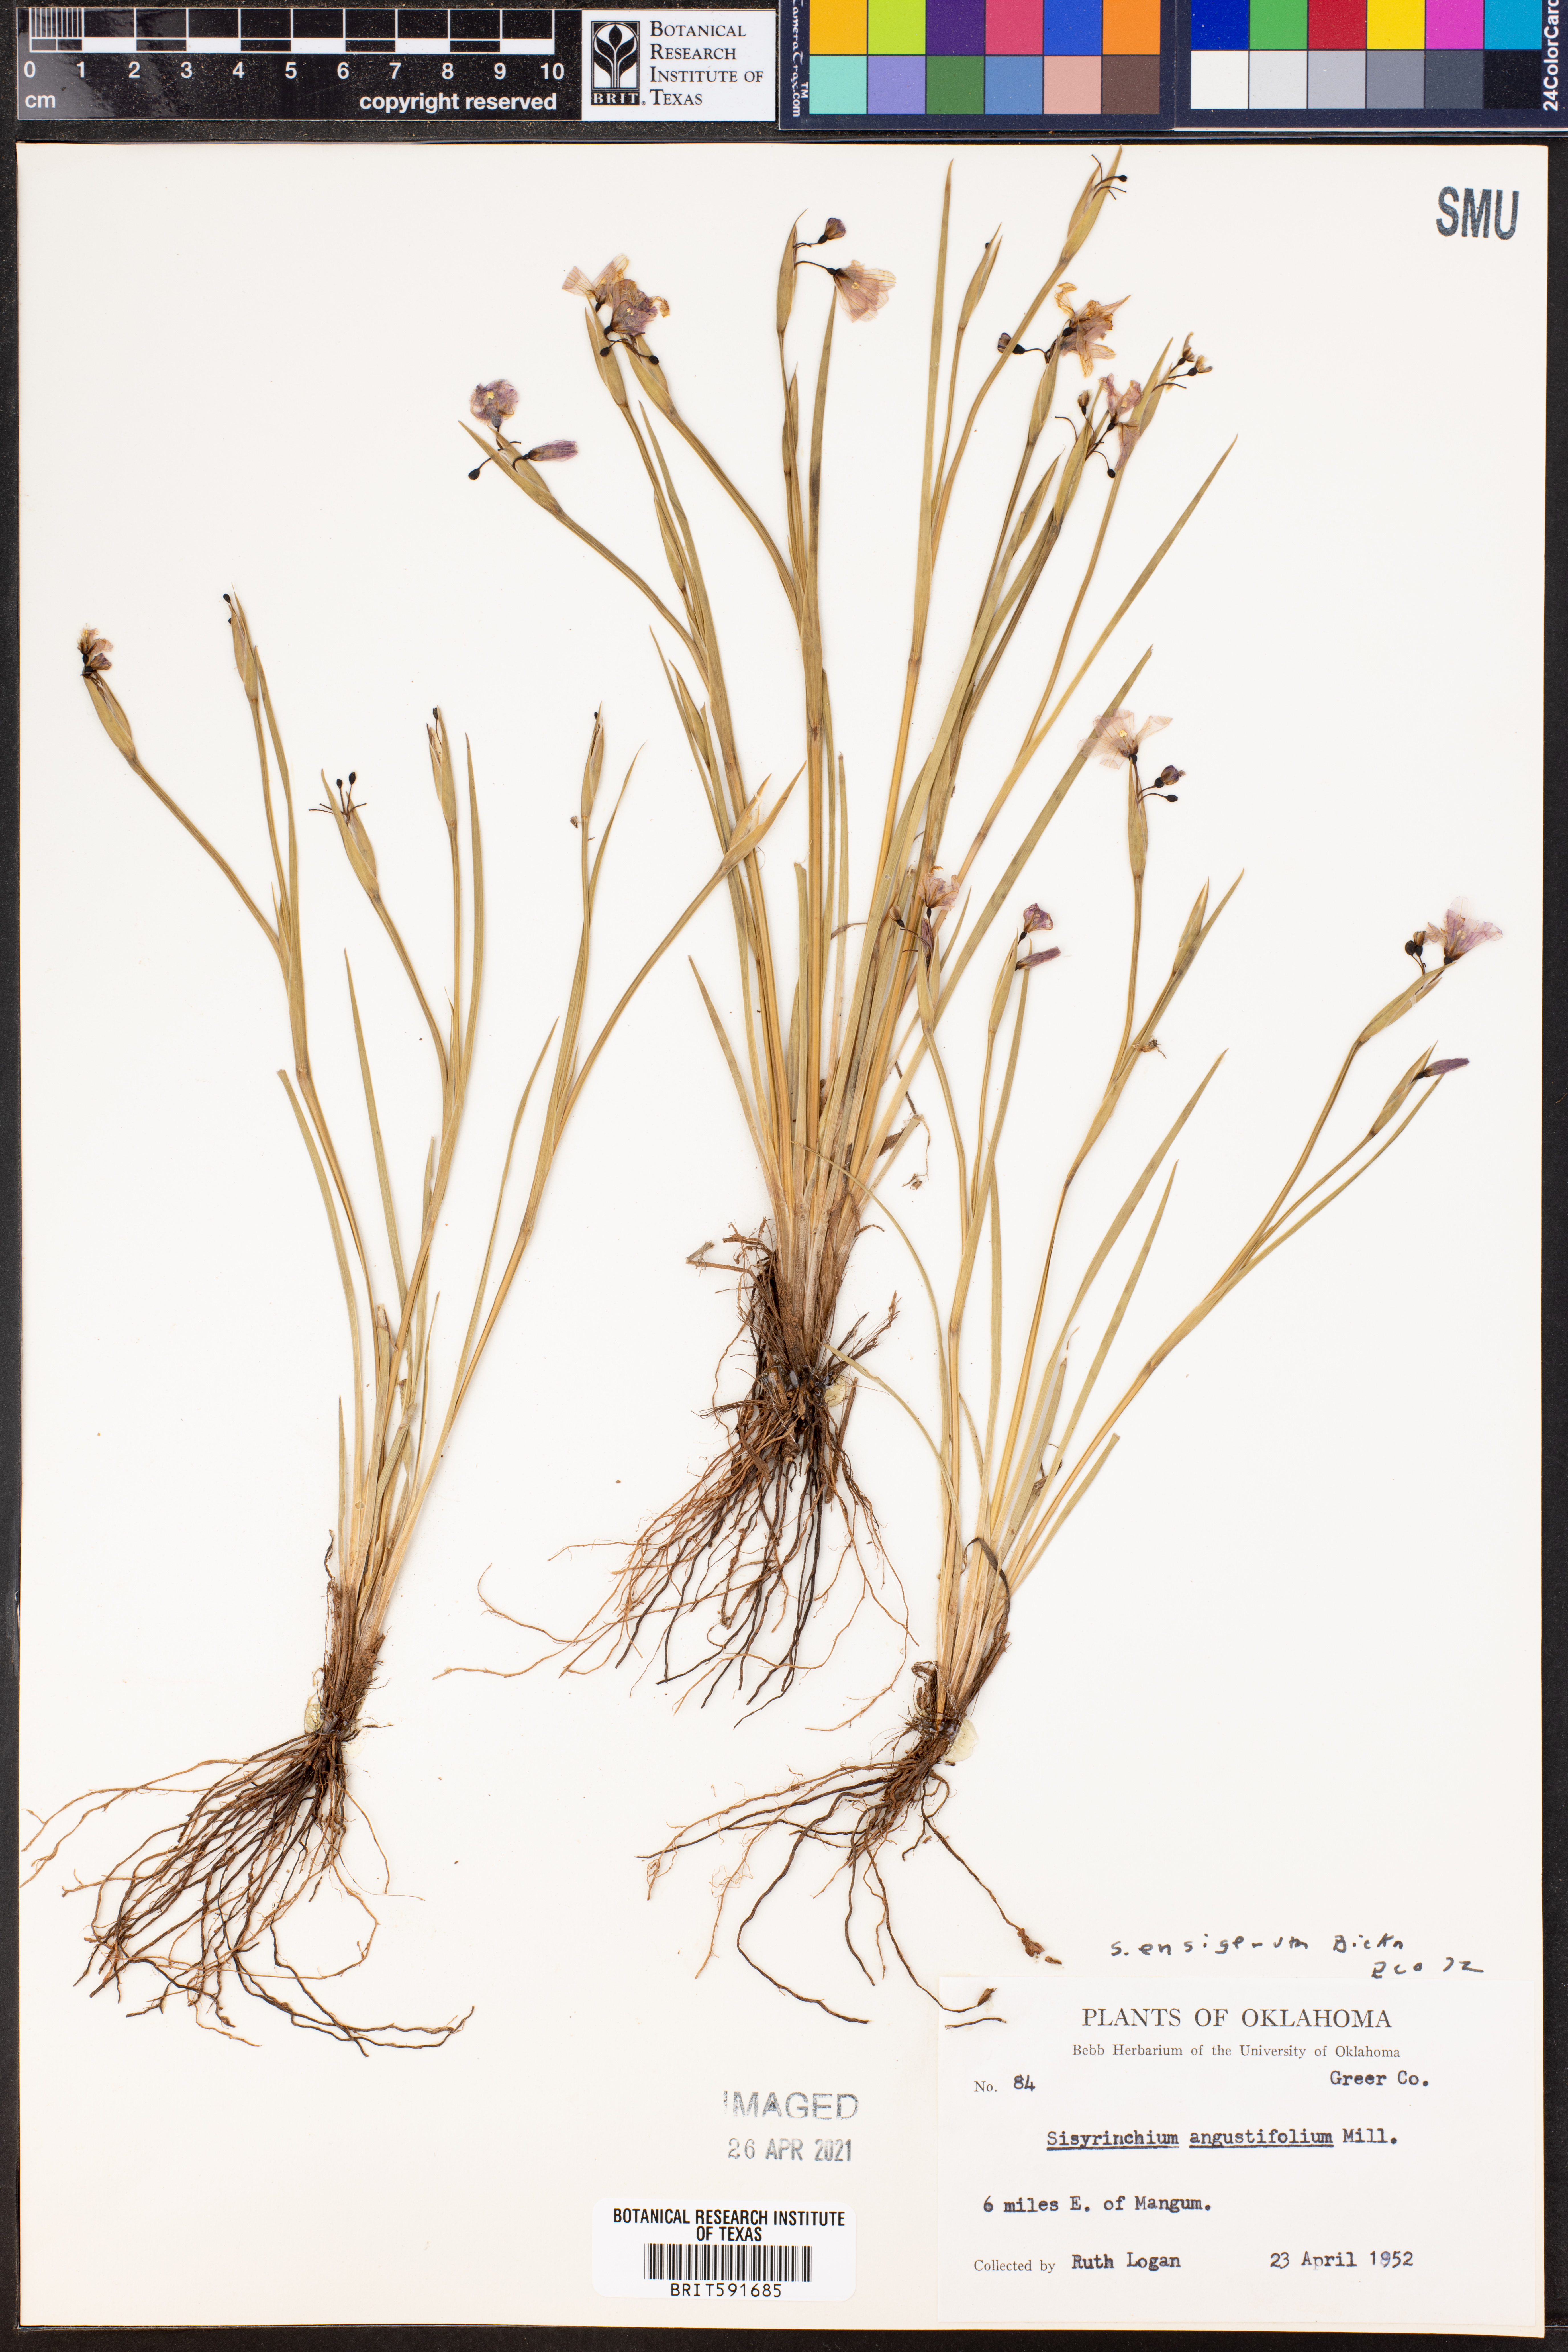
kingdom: Plantae
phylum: Tracheophyta
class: Liliopsida
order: Asparagales
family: Iridaceae
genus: Sisyrinchium
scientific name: Sisyrinchium ensigerum
